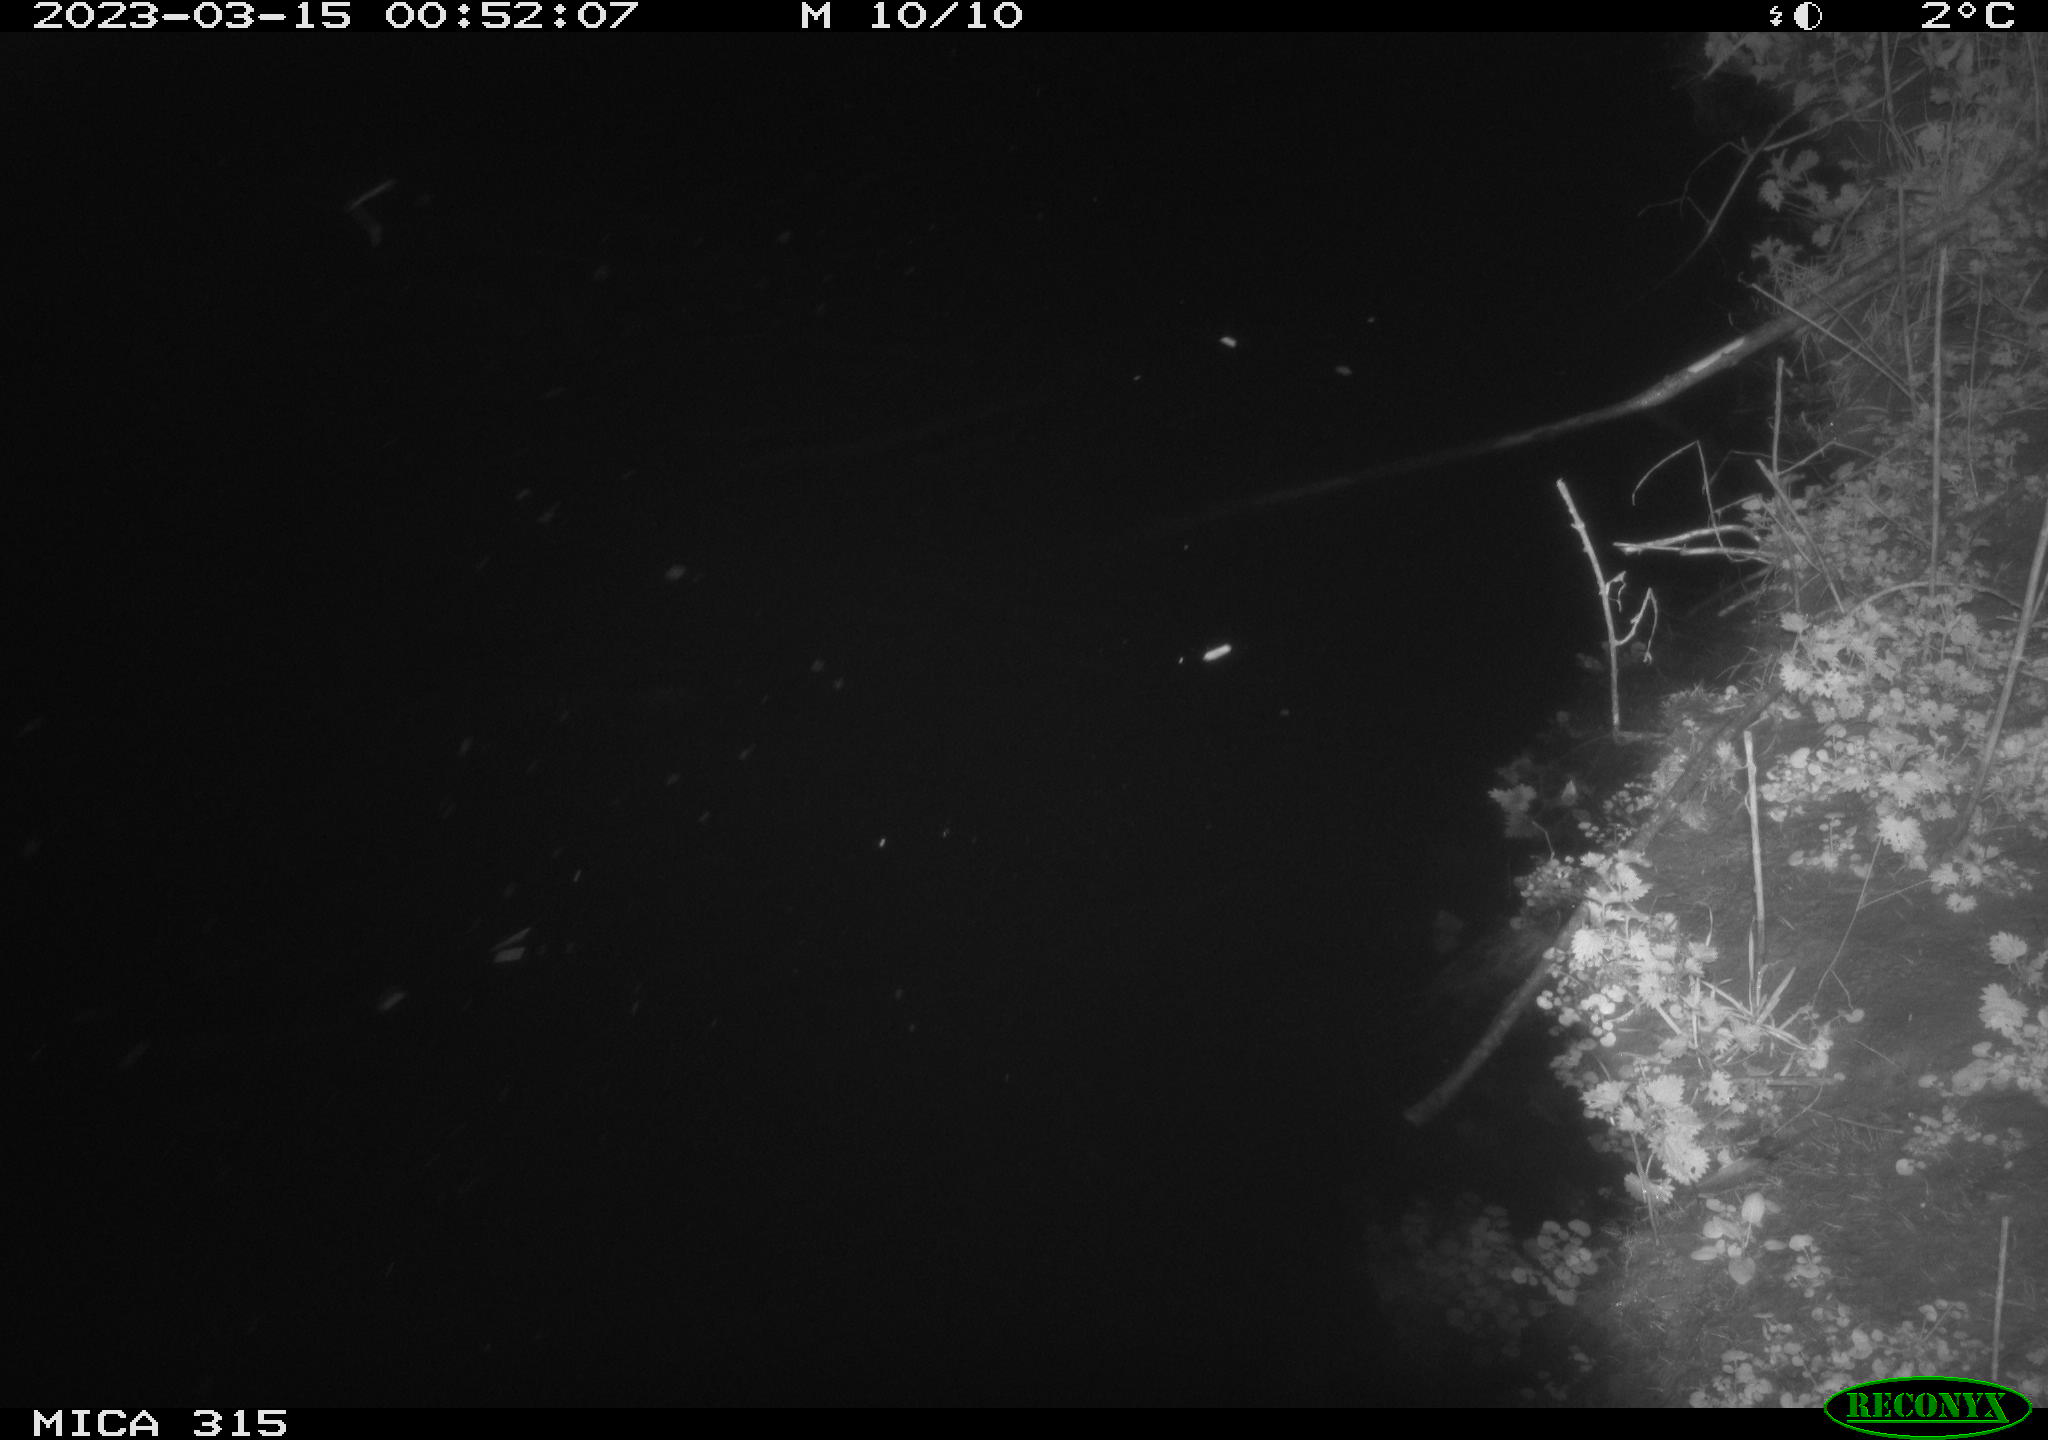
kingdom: Animalia
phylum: Chordata
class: Aves
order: Anseriformes
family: Anatidae
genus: Anas
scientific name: Anas
